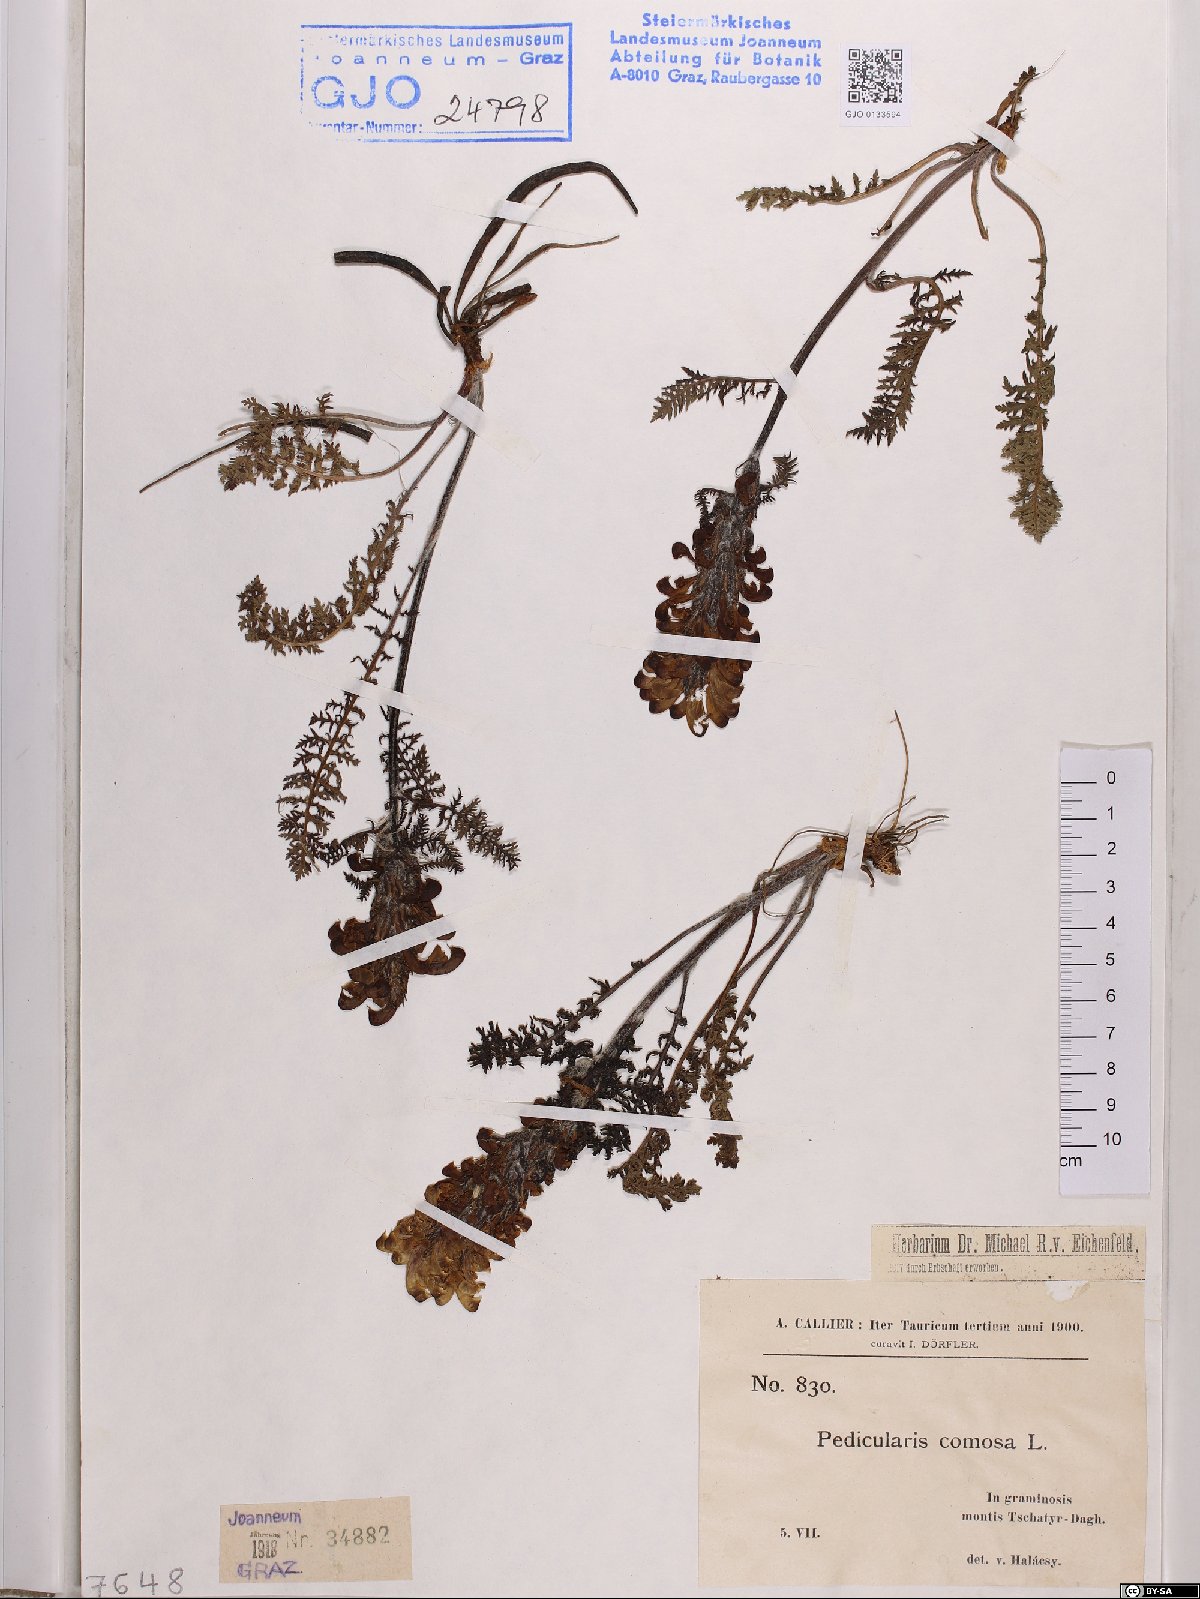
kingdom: Plantae
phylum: Tracheophyta
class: Magnoliopsida
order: Lamiales
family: Orobanchaceae
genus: Pedicularis
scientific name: Pedicularis comosa
